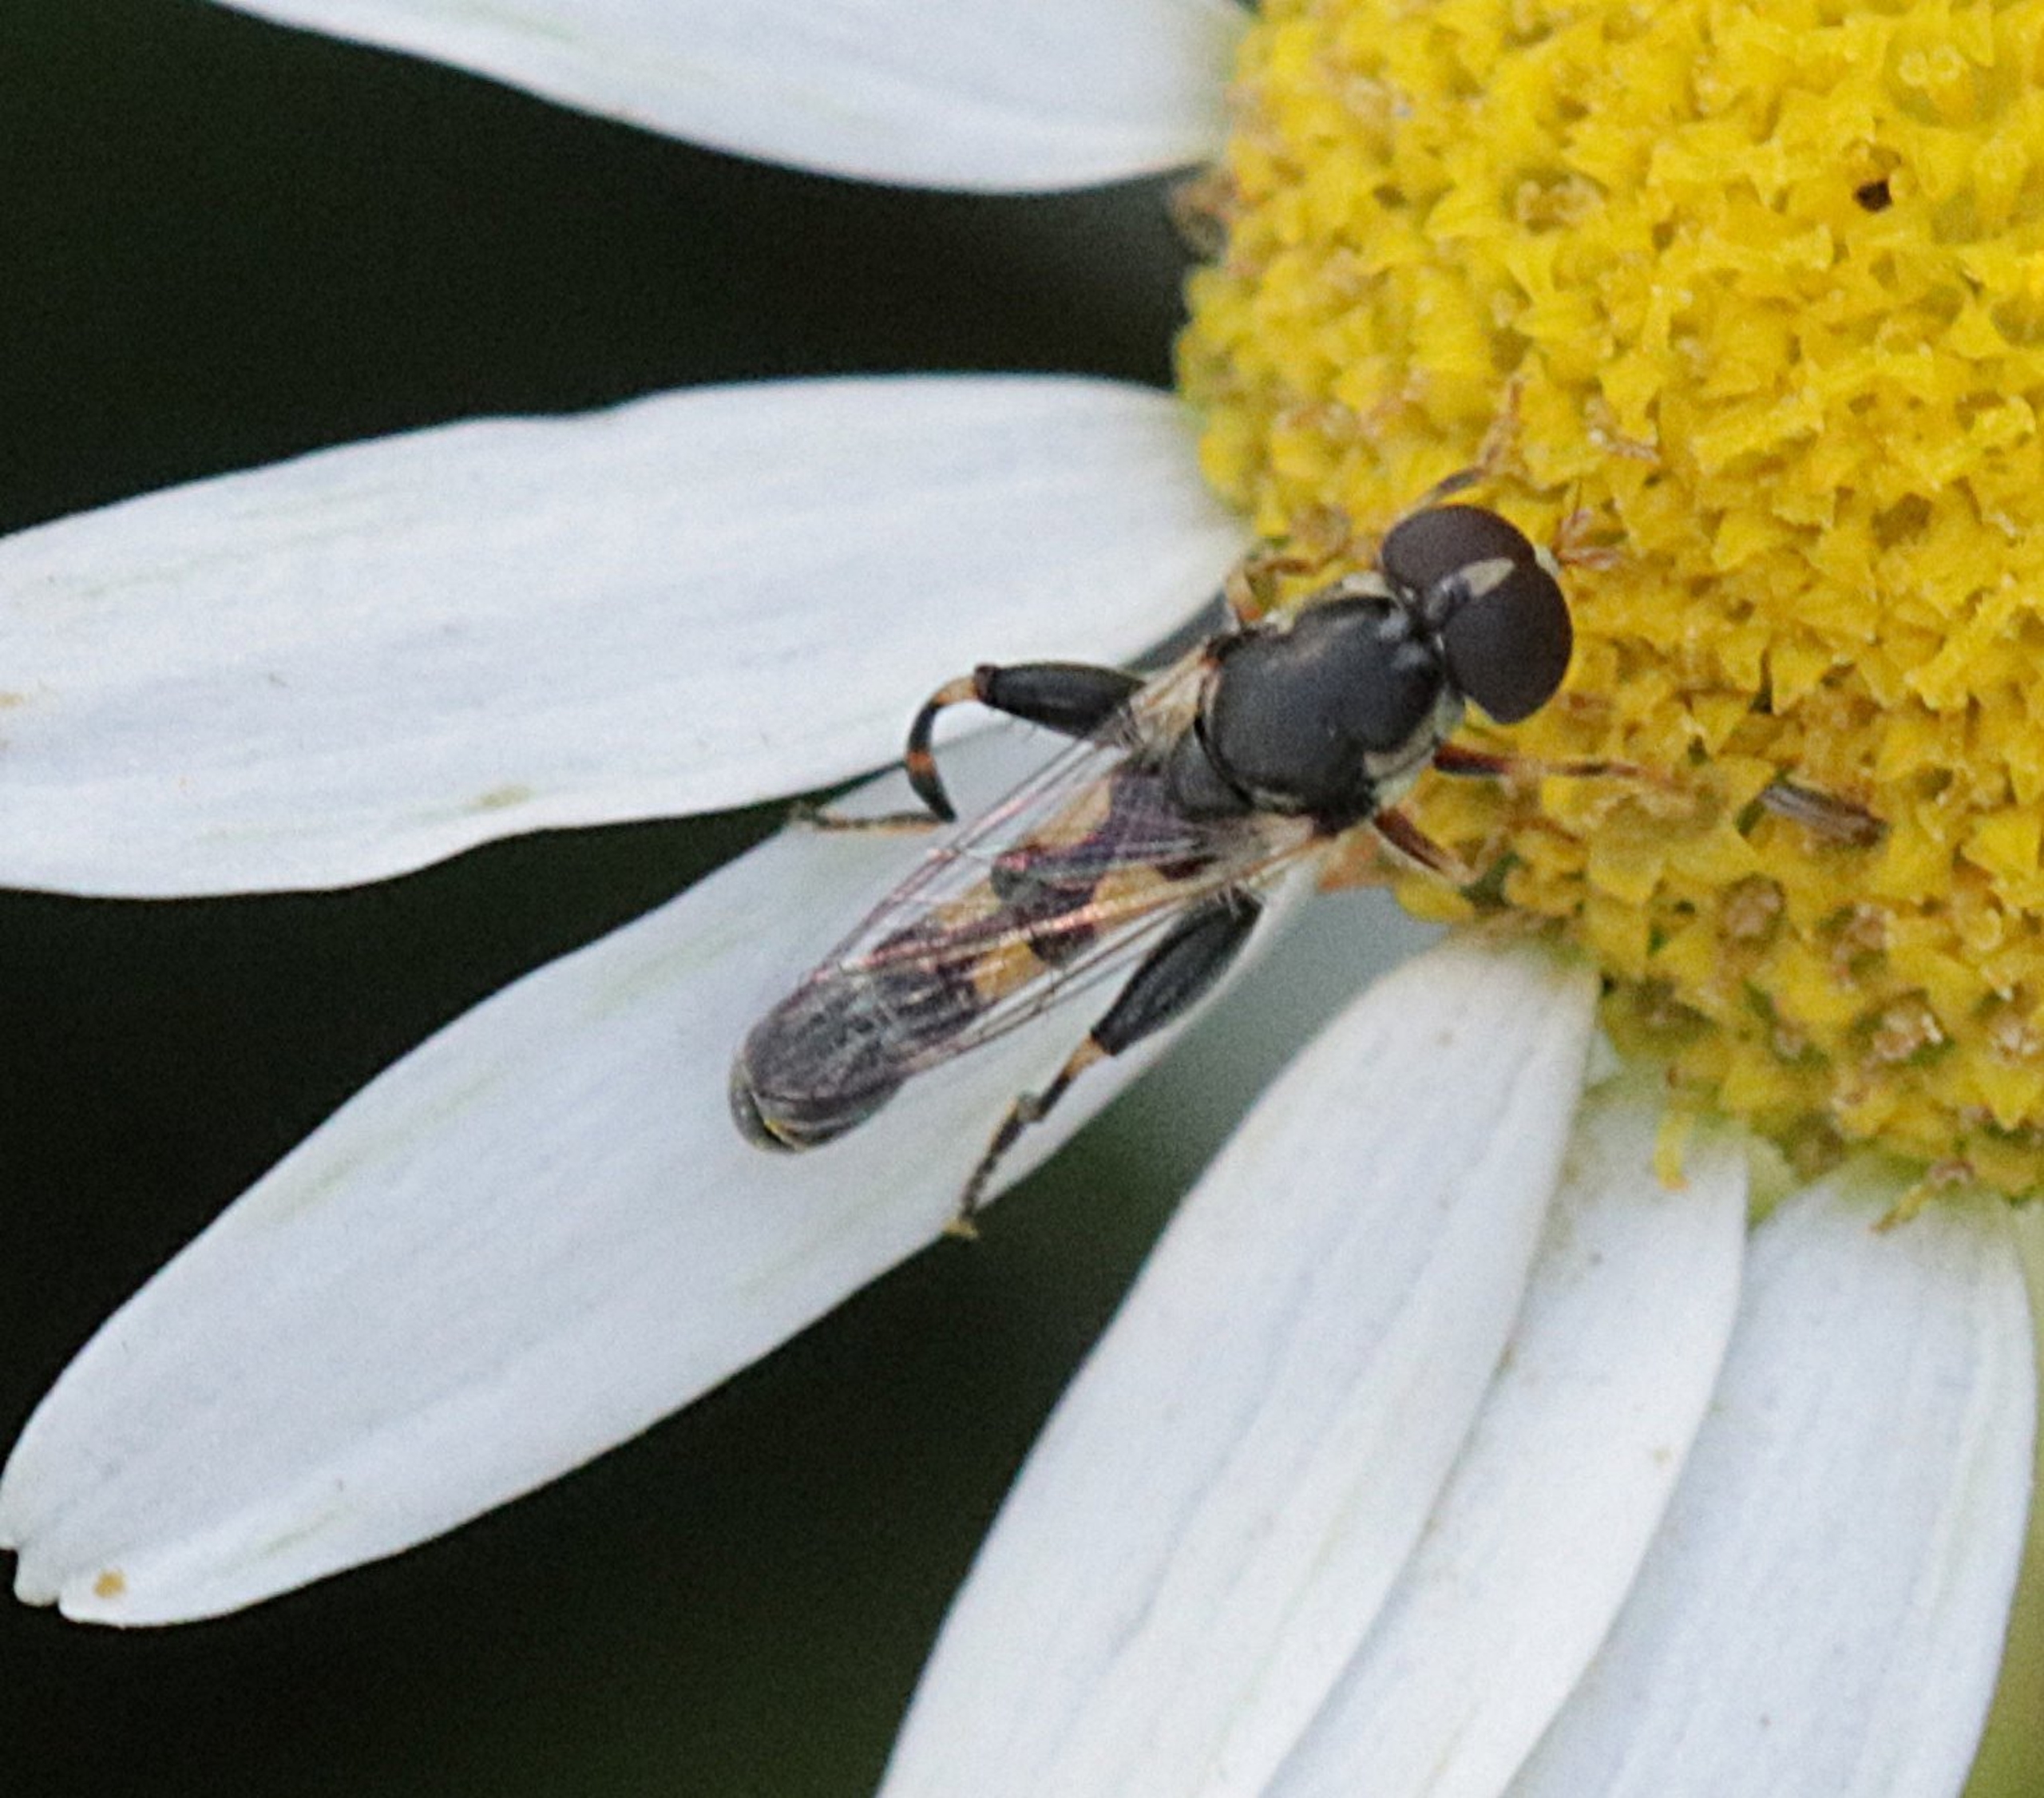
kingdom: Animalia
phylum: Arthropoda
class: Insecta
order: Diptera
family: Syrphidae
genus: Syritta
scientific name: Syritta pipiens
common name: Kompost-svirreflue
